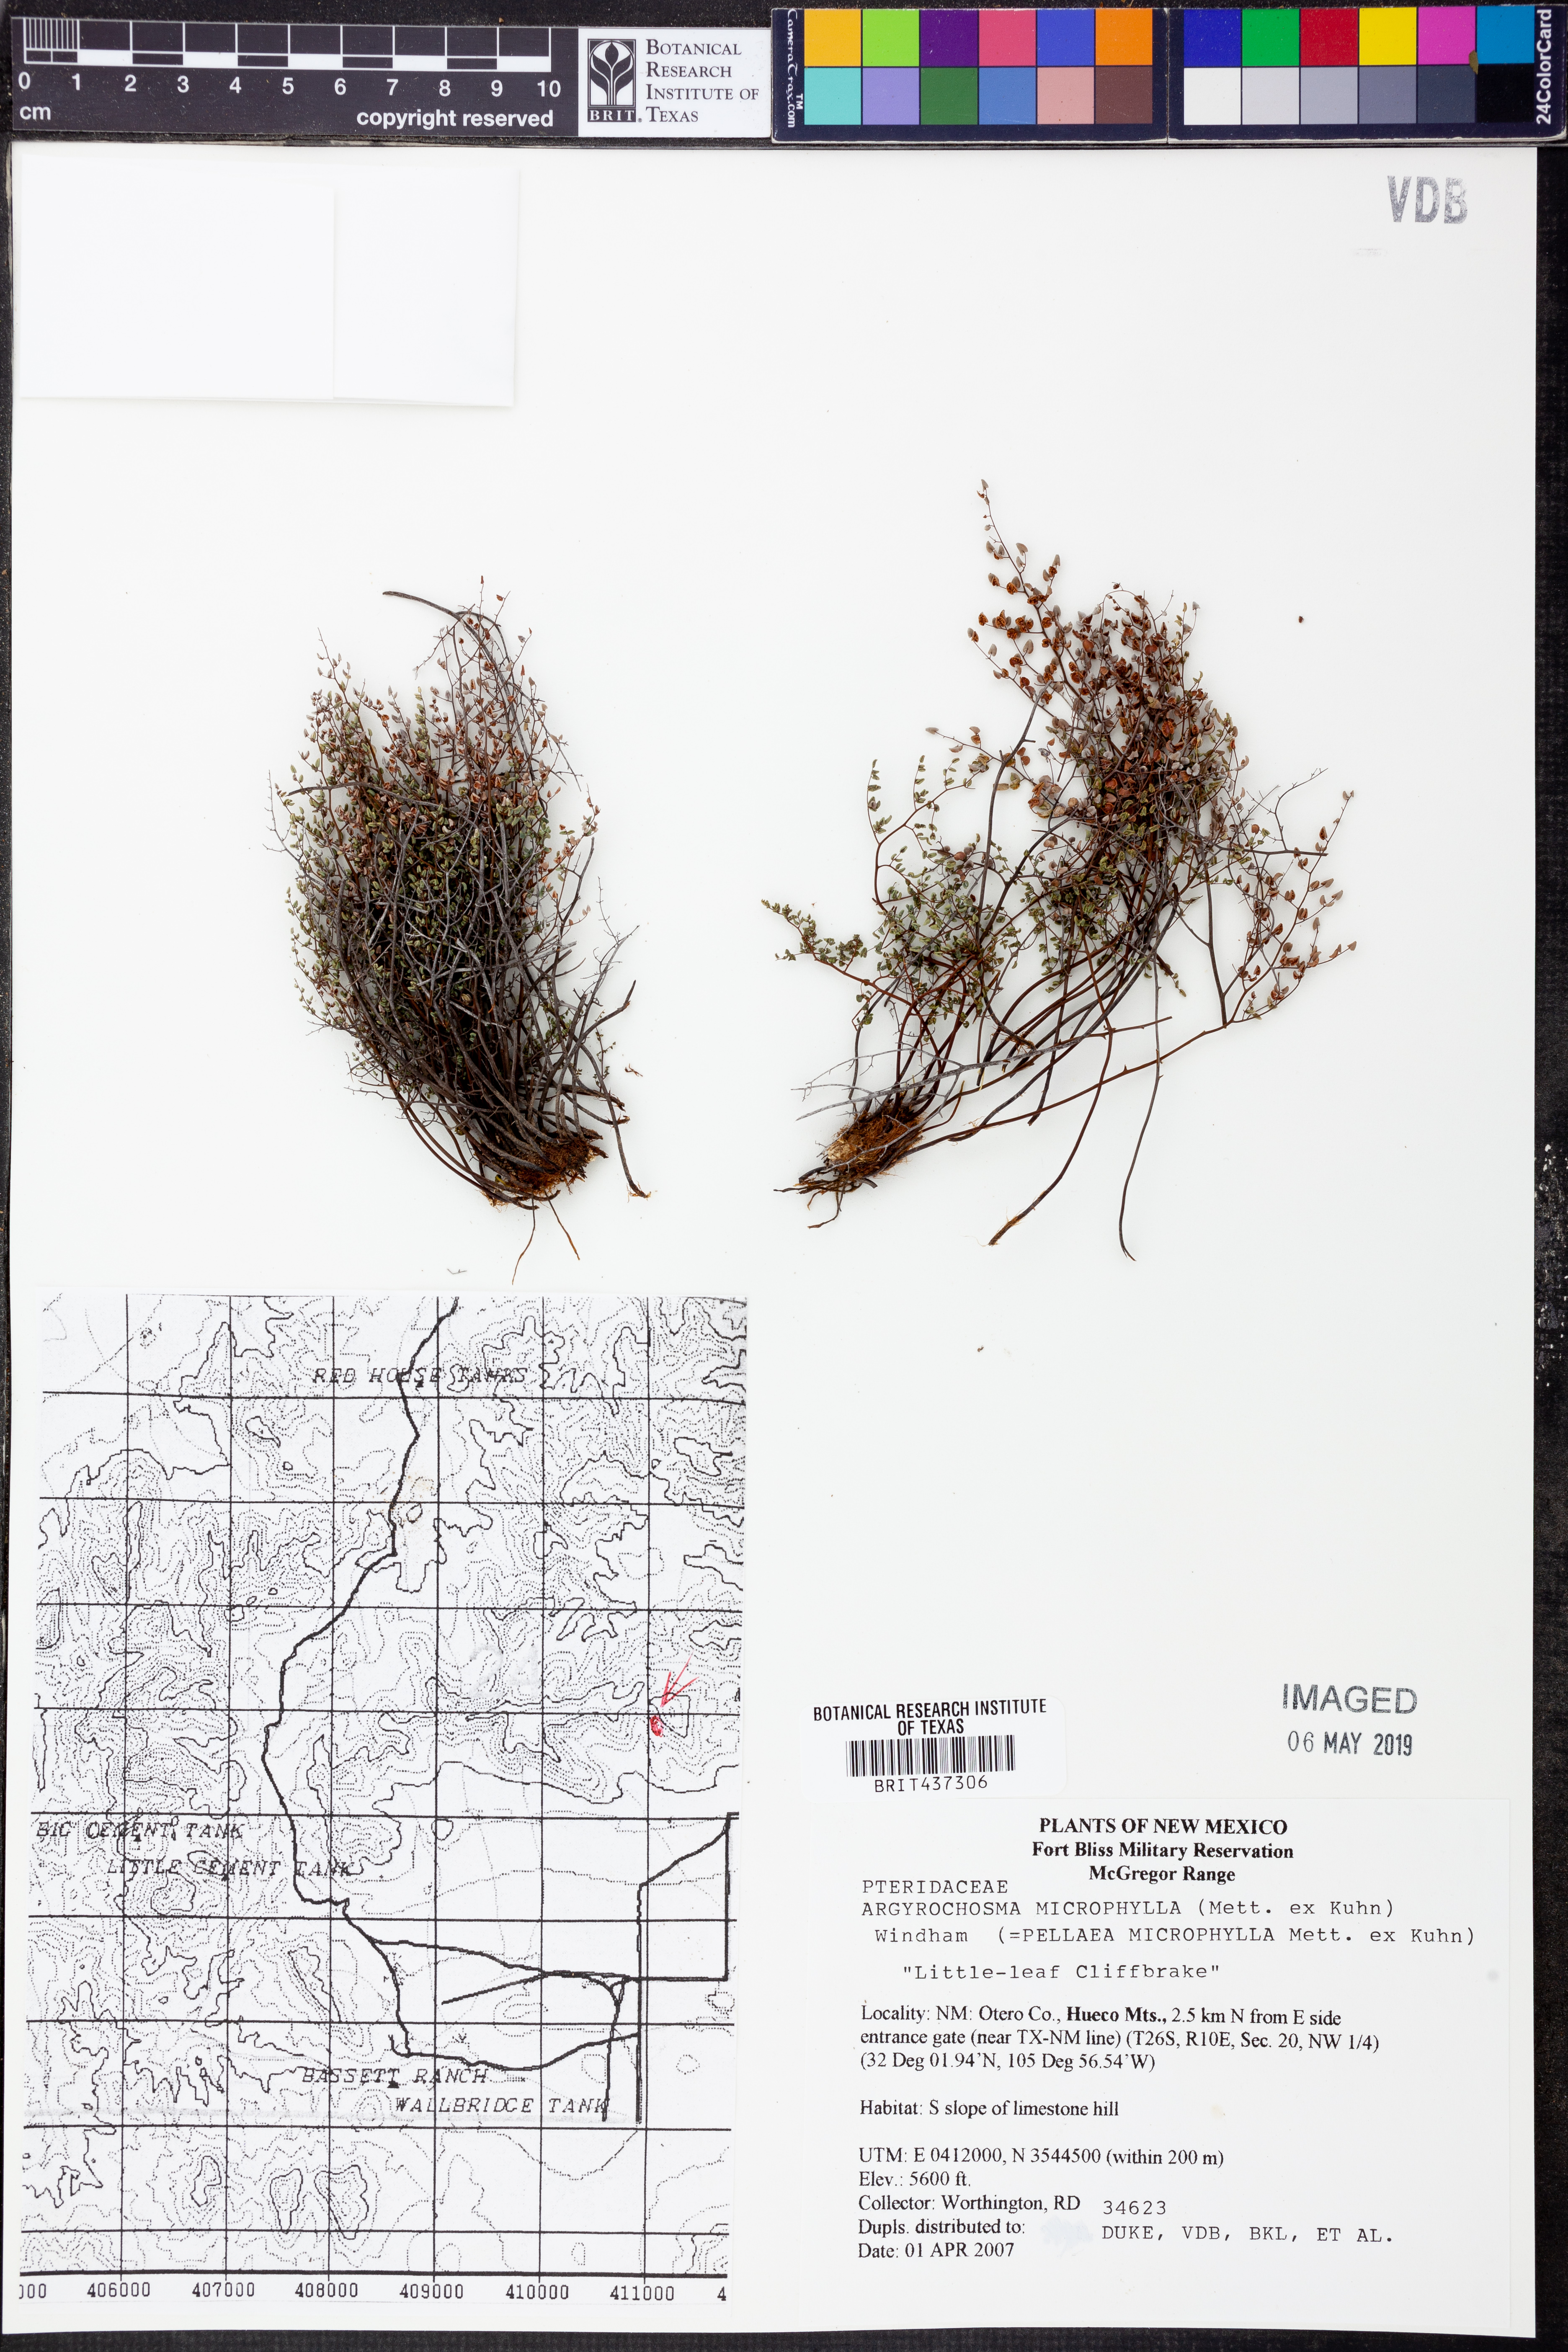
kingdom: Plantae
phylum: Tracheophyta
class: Polypodiopsida
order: Polypodiales
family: Pteridaceae
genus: Argyrochosma
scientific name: Argyrochosma microphylla
